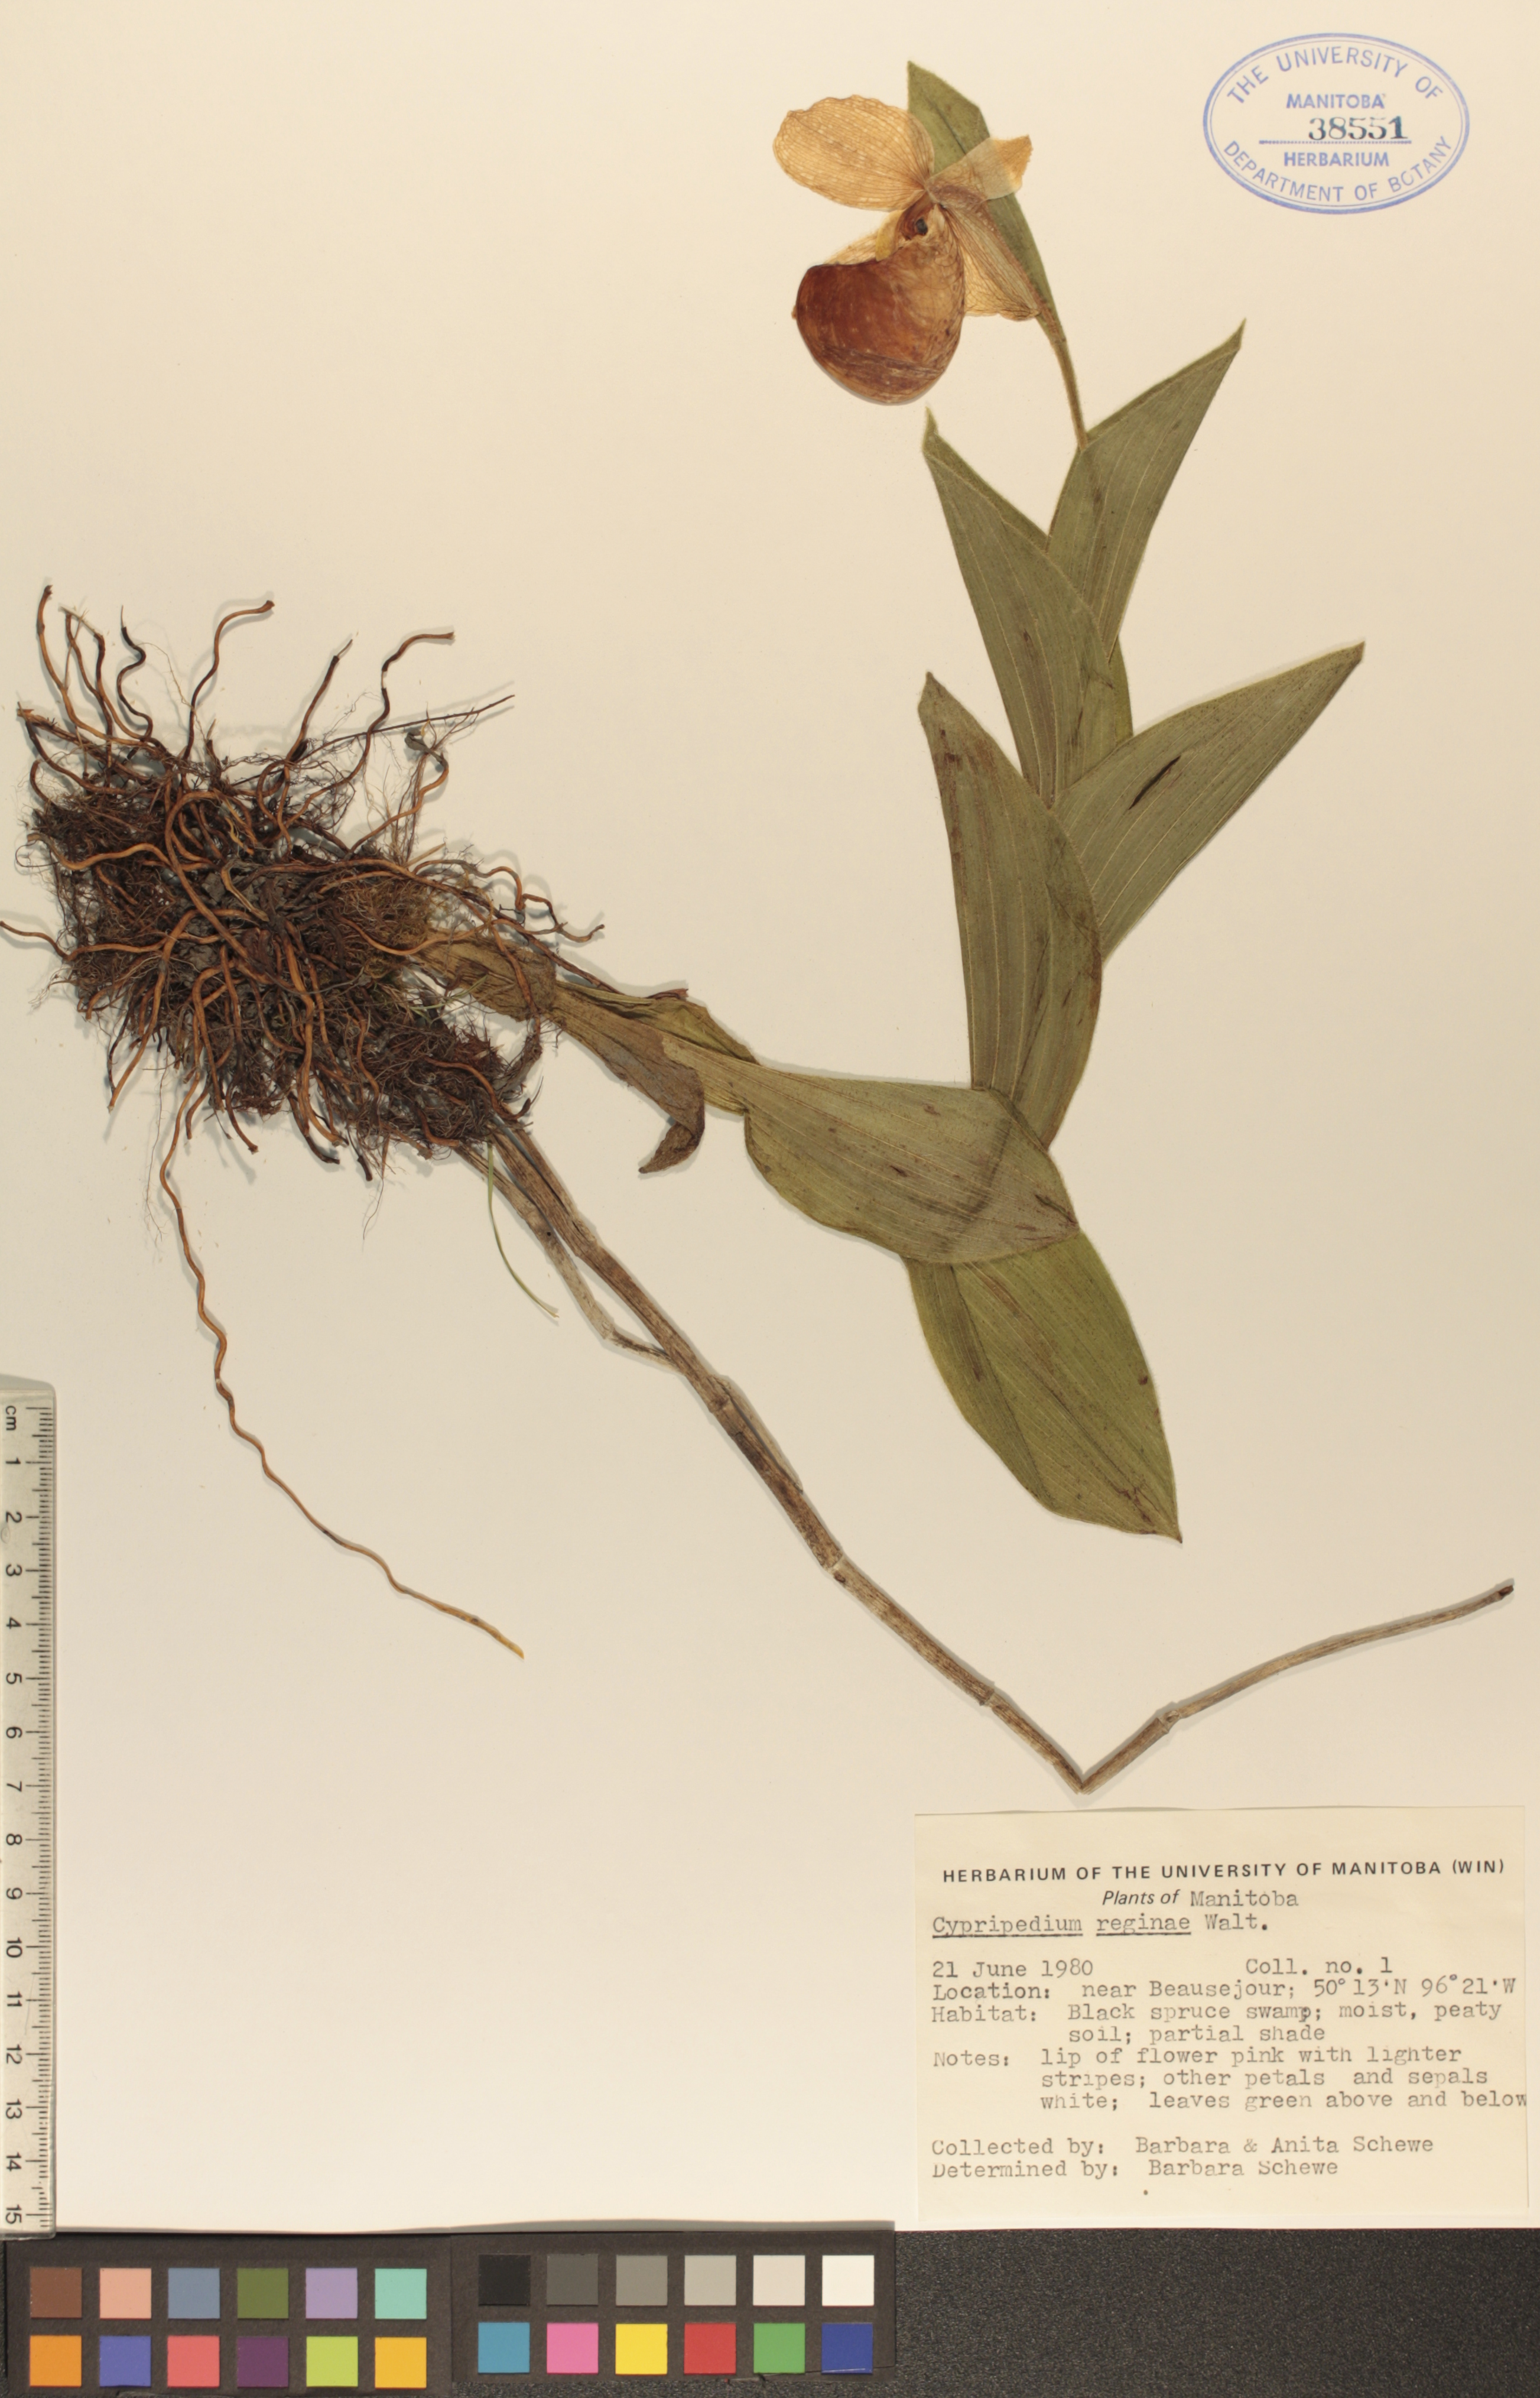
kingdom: Plantae
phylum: Tracheophyta
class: Liliopsida
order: Asparagales
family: Orchidaceae
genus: Cypripedium
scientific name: Cypripedium reginae
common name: Queen lady's-slipper
